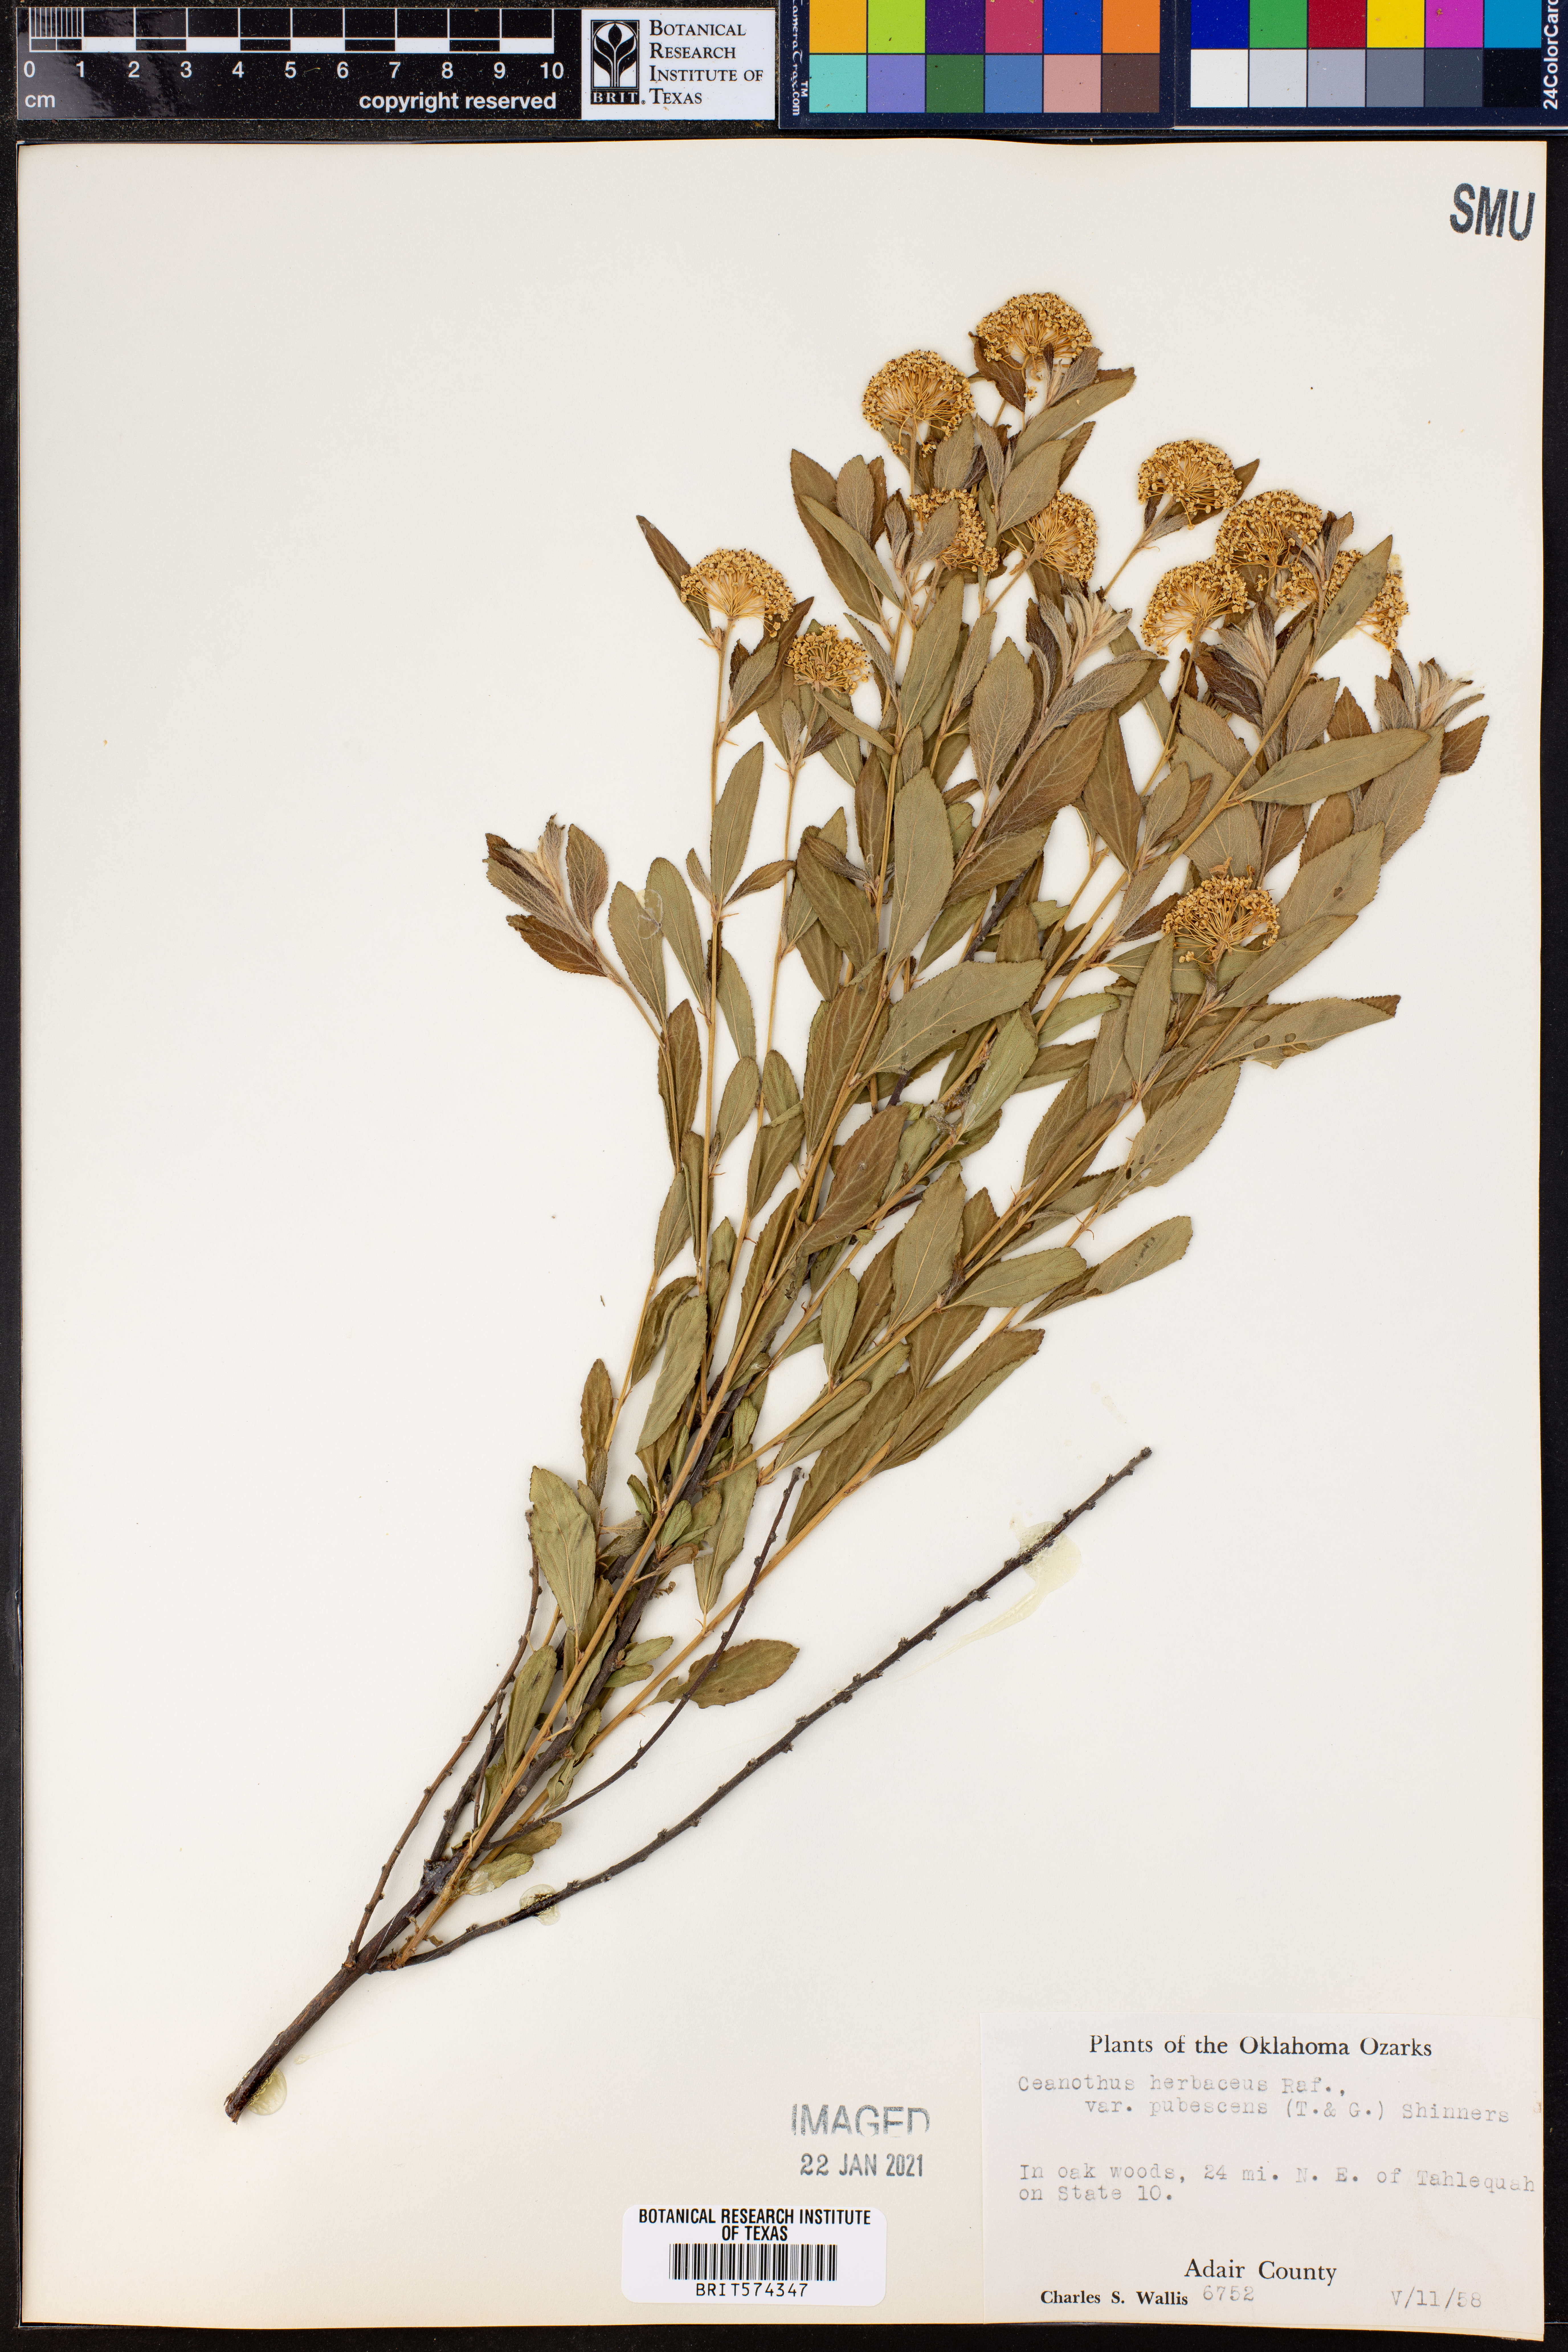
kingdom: Plantae
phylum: Tracheophyta
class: Magnoliopsida
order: Rosales
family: Rhamnaceae
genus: Ceanothus
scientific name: Ceanothus herbaceus
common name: Inland ceanothus
